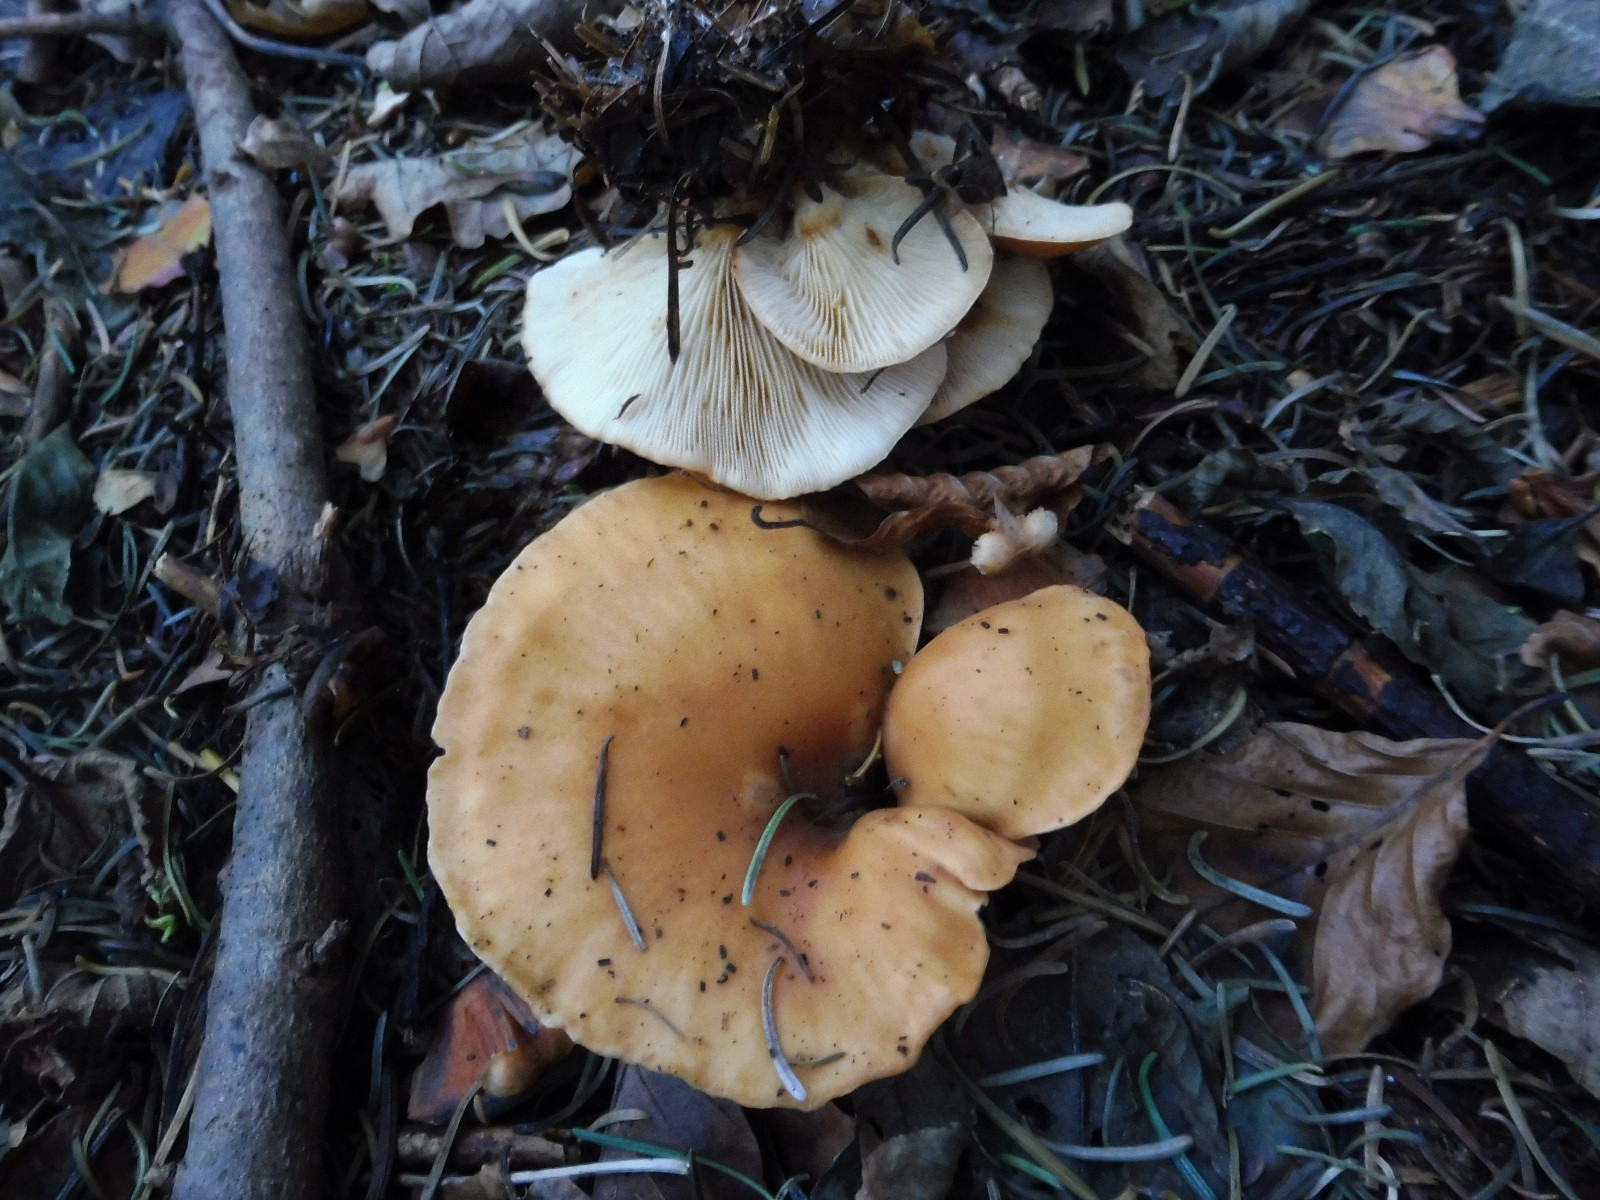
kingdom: Fungi
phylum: Basidiomycota
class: Agaricomycetes
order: Agaricales
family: Tricholomataceae
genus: Paralepista
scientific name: Paralepista flaccida
